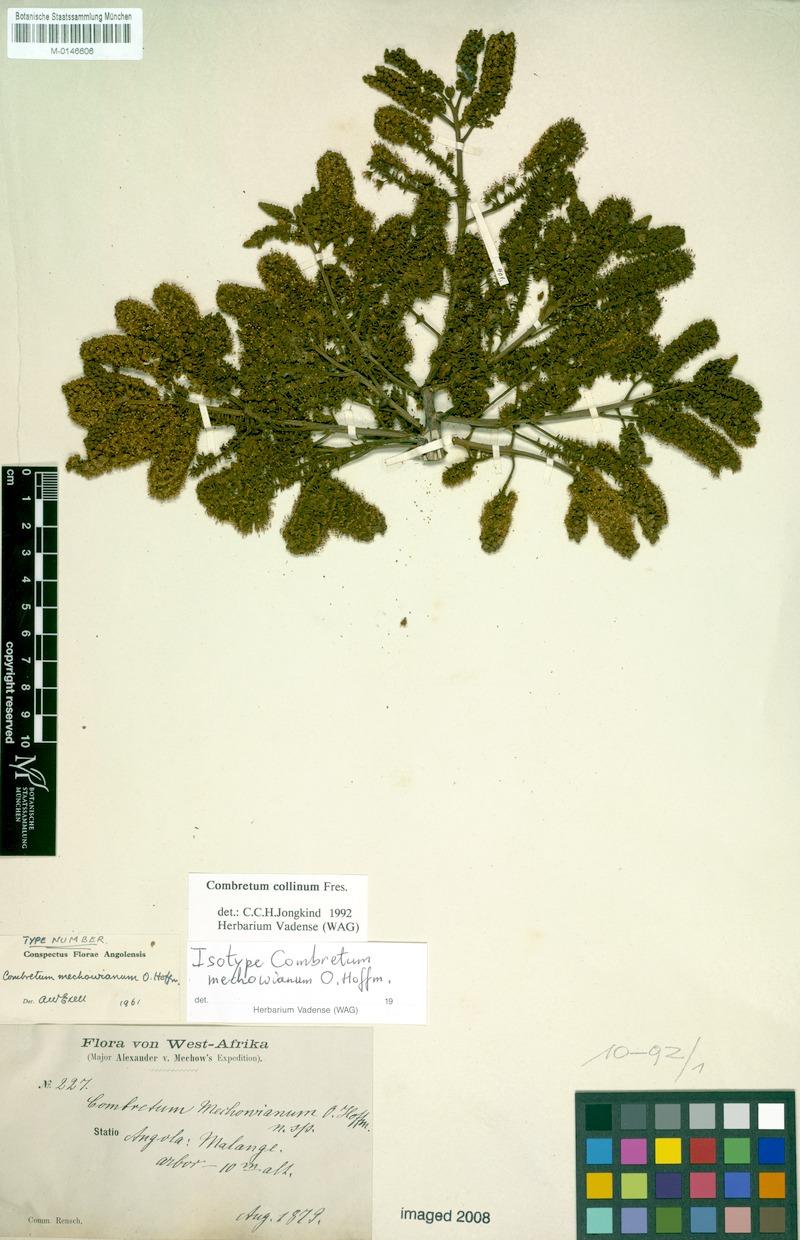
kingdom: Plantae
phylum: Tracheophyta
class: Magnoliopsida
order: Myrtales
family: Combretaceae
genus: Combretum
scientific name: Combretum collinum
